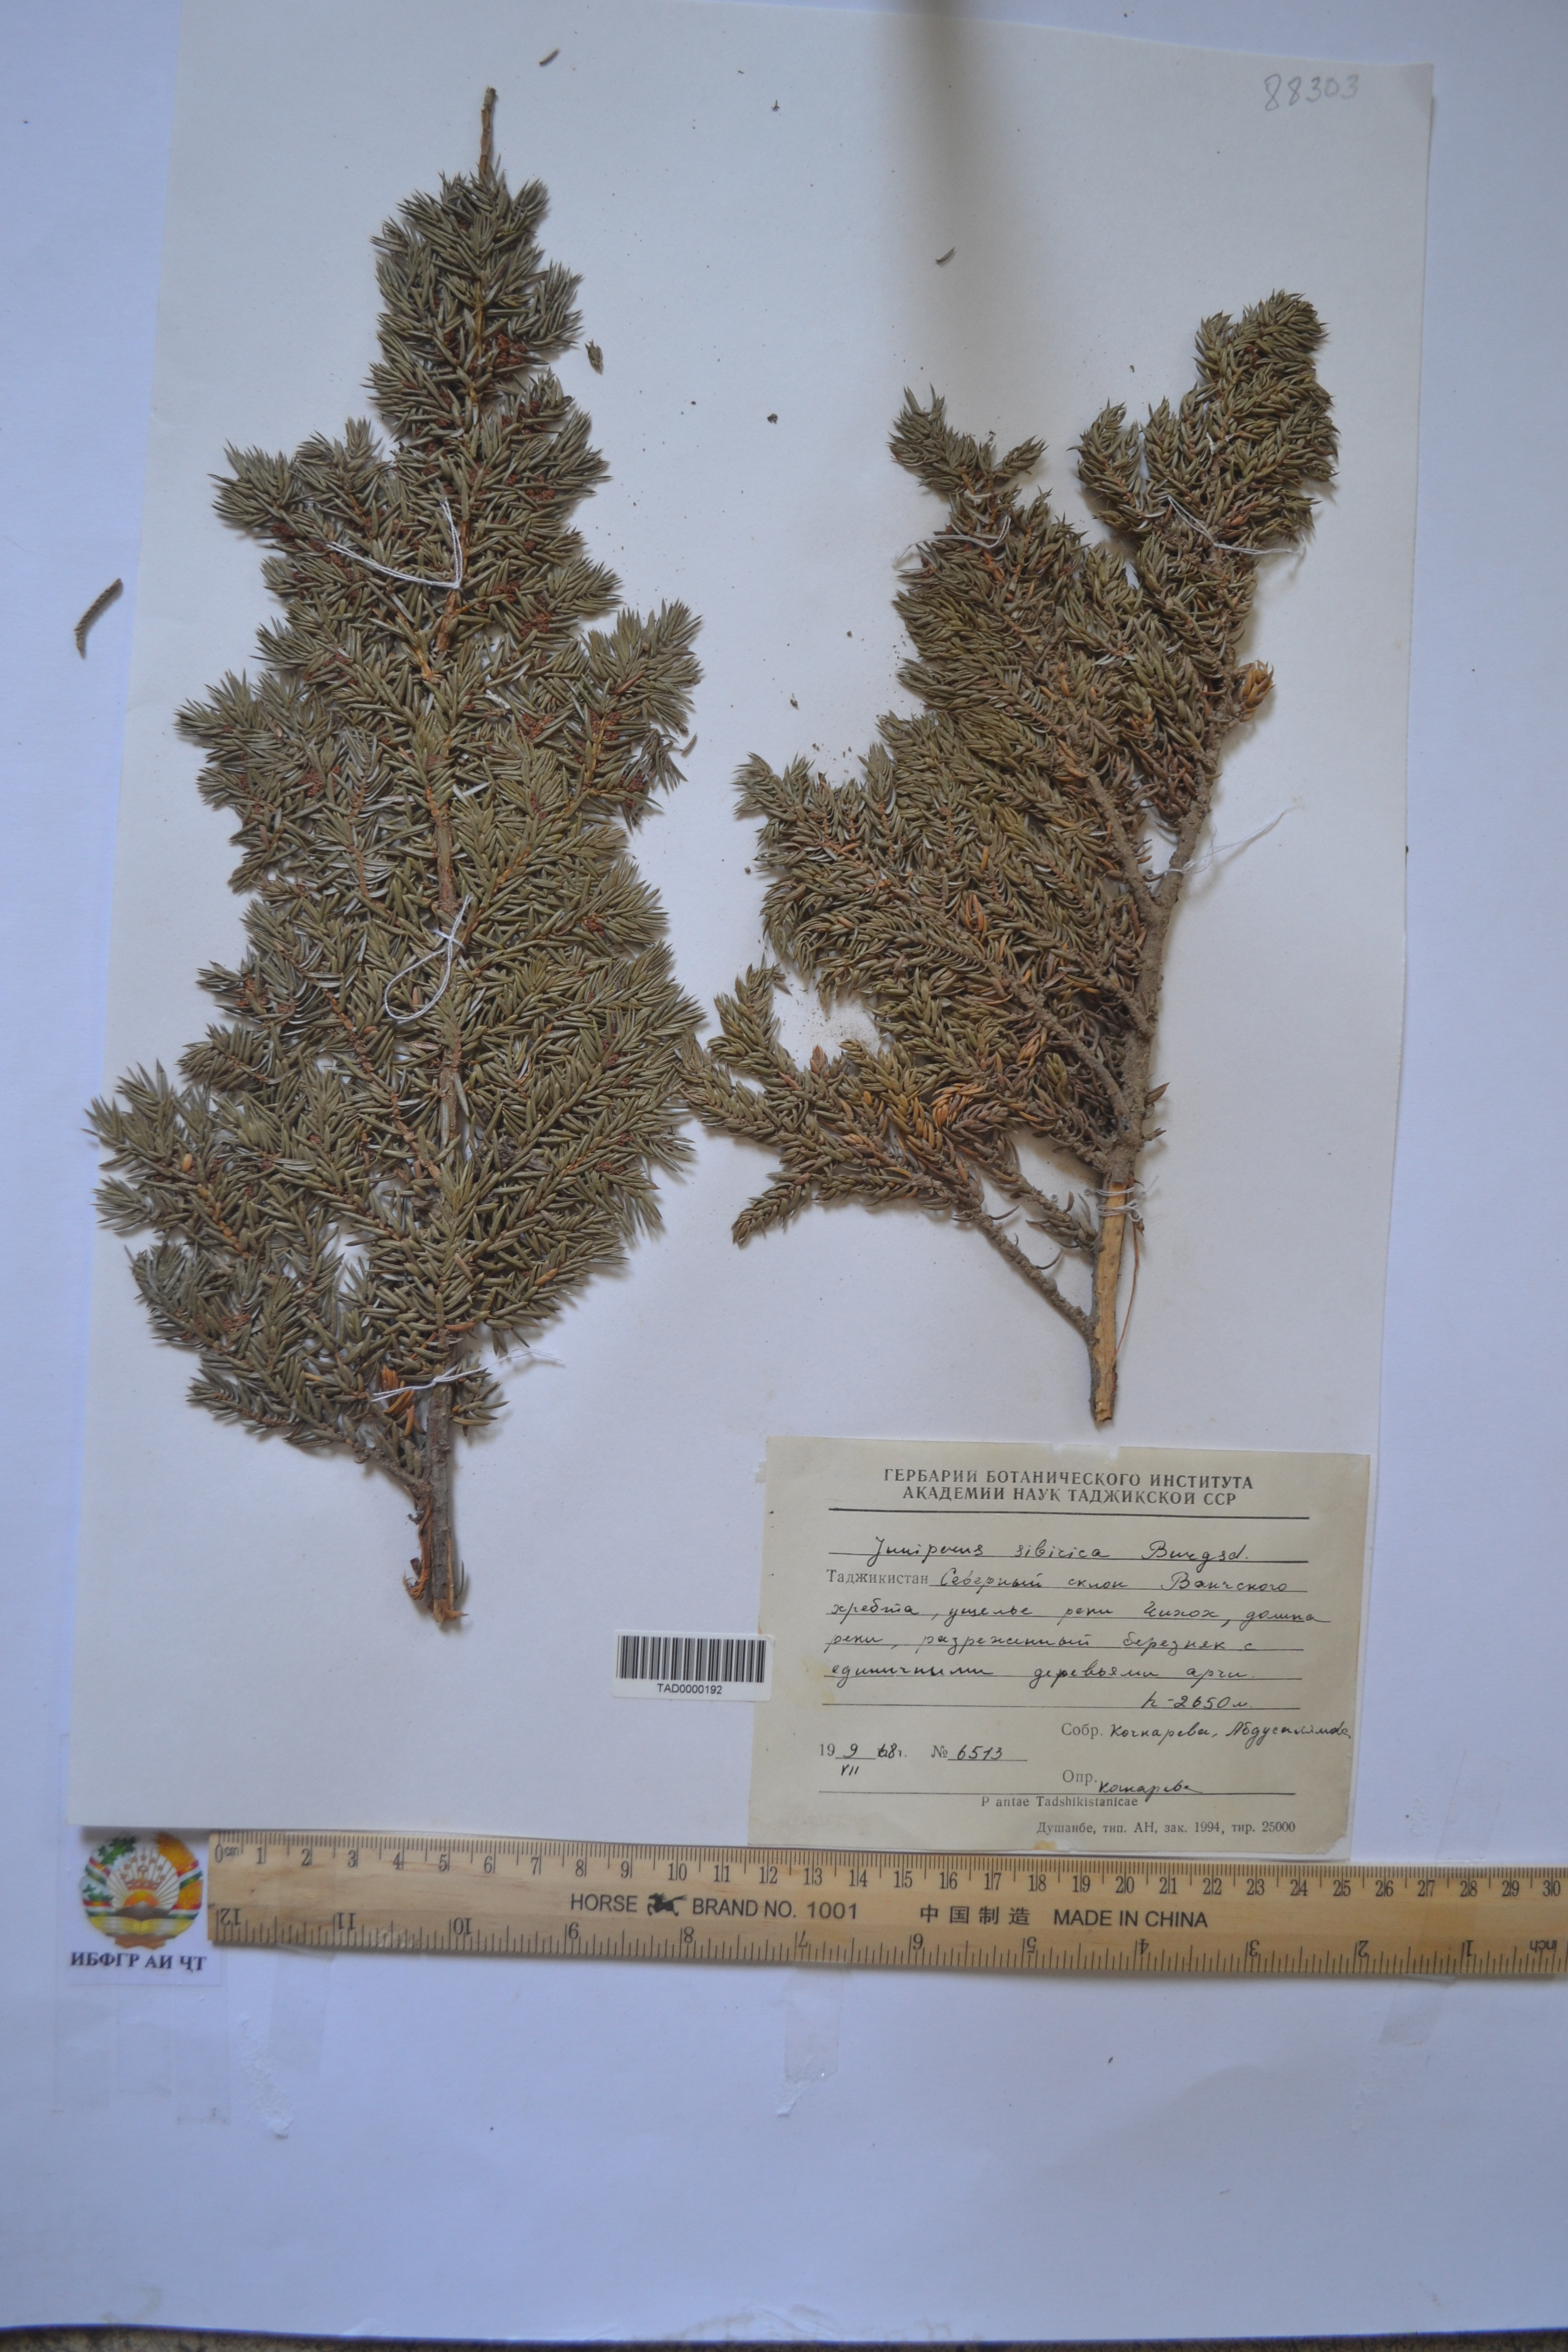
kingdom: Plantae
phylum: Tracheophyta
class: Pinopsida
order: Pinales
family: Cupressaceae
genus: Juniperus
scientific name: Juniperus communis
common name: Common juniper
